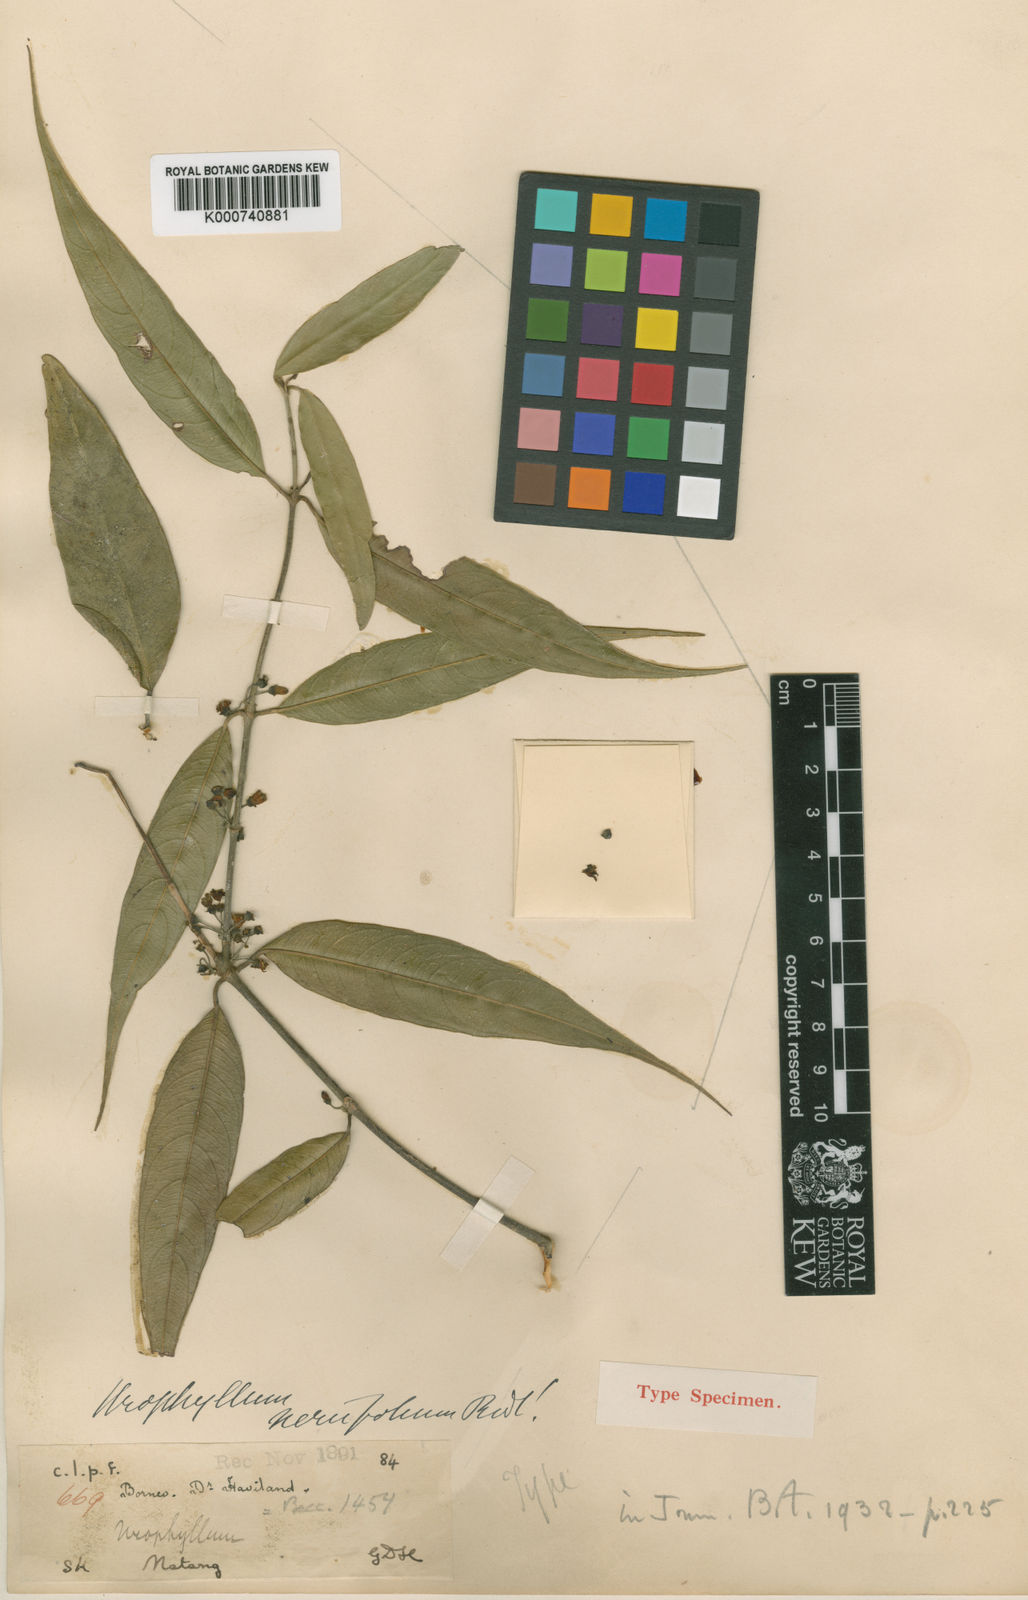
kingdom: Plantae
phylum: Tracheophyta
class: Magnoliopsida
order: Gentianales
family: Rubiaceae
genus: Urophyllum
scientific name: Urophyllum neriifolium
